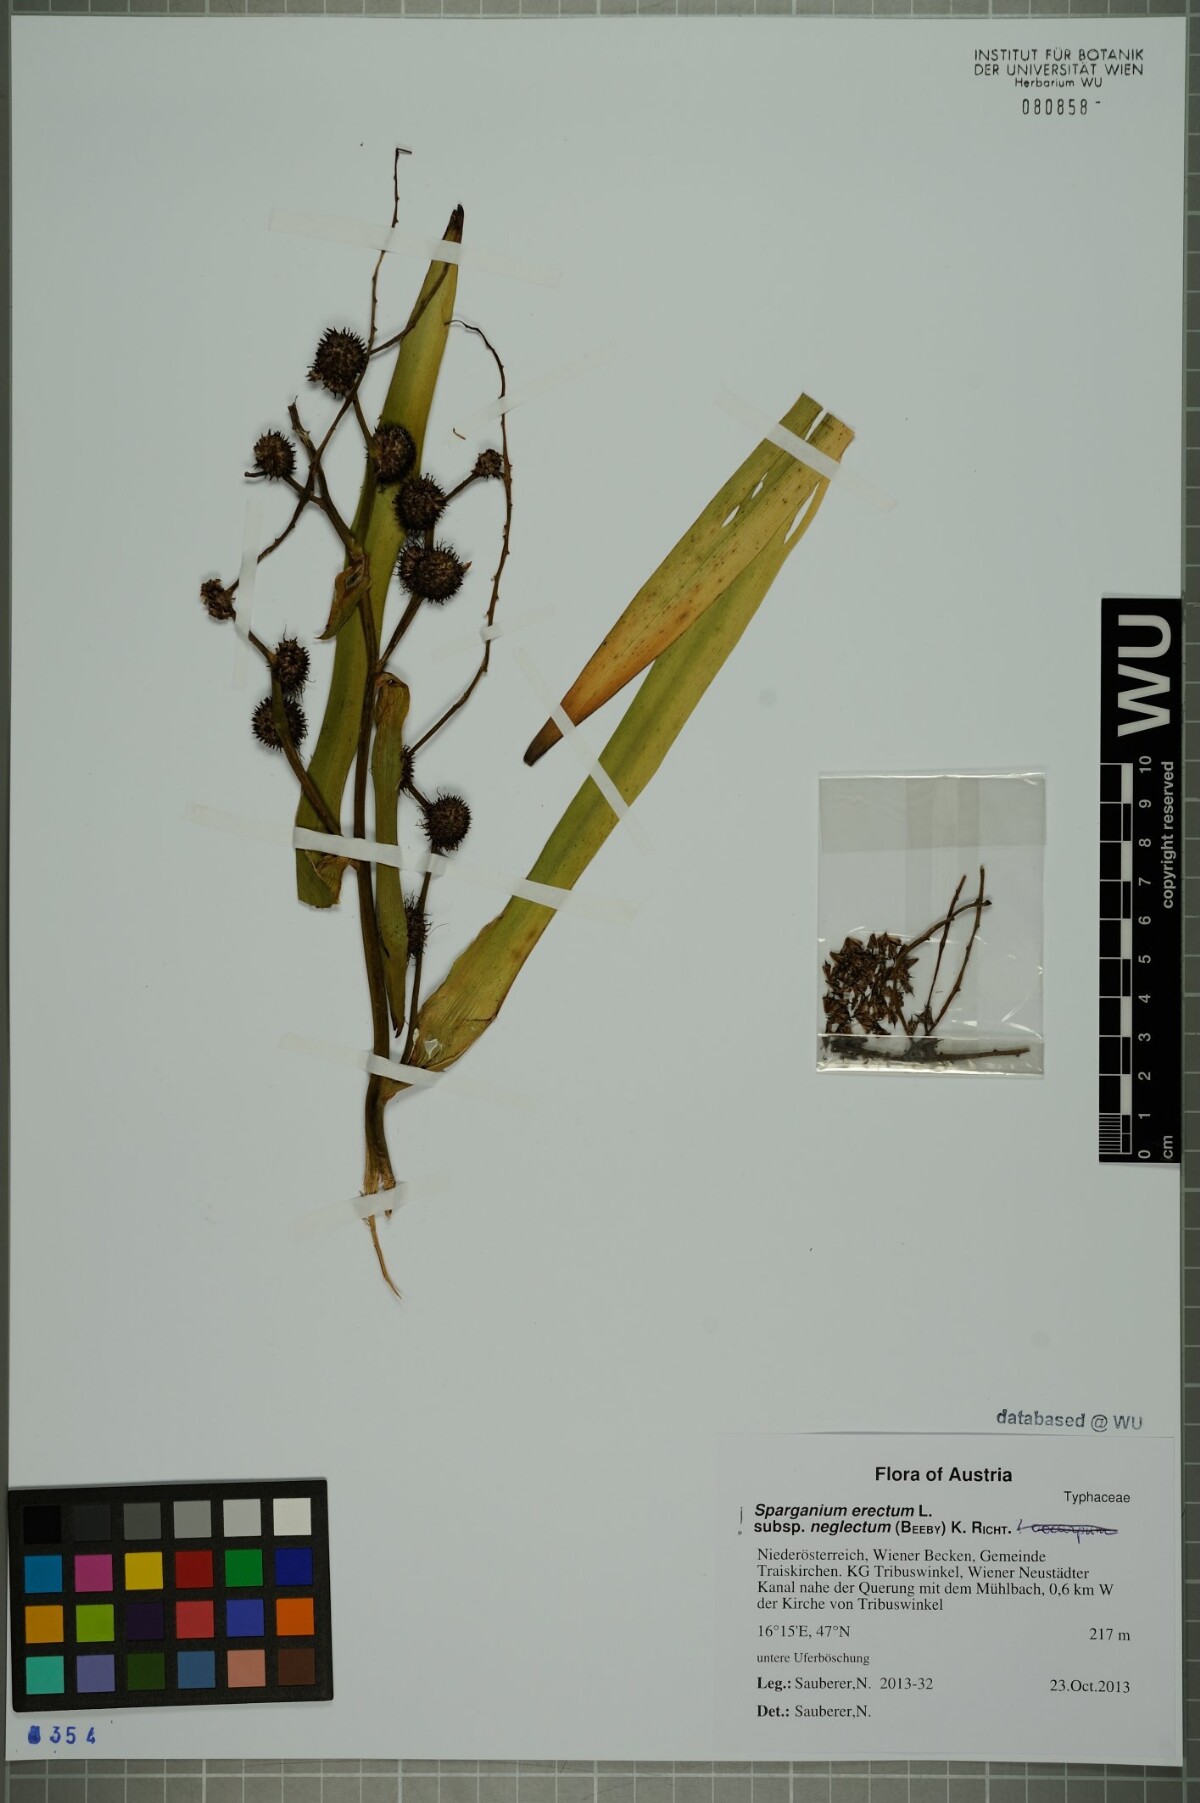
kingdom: Plantae
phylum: Tracheophyta
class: Liliopsida
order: Poales
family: Typhaceae
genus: Sparganium
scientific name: Sparganium erectum
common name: Branched bur-reed
